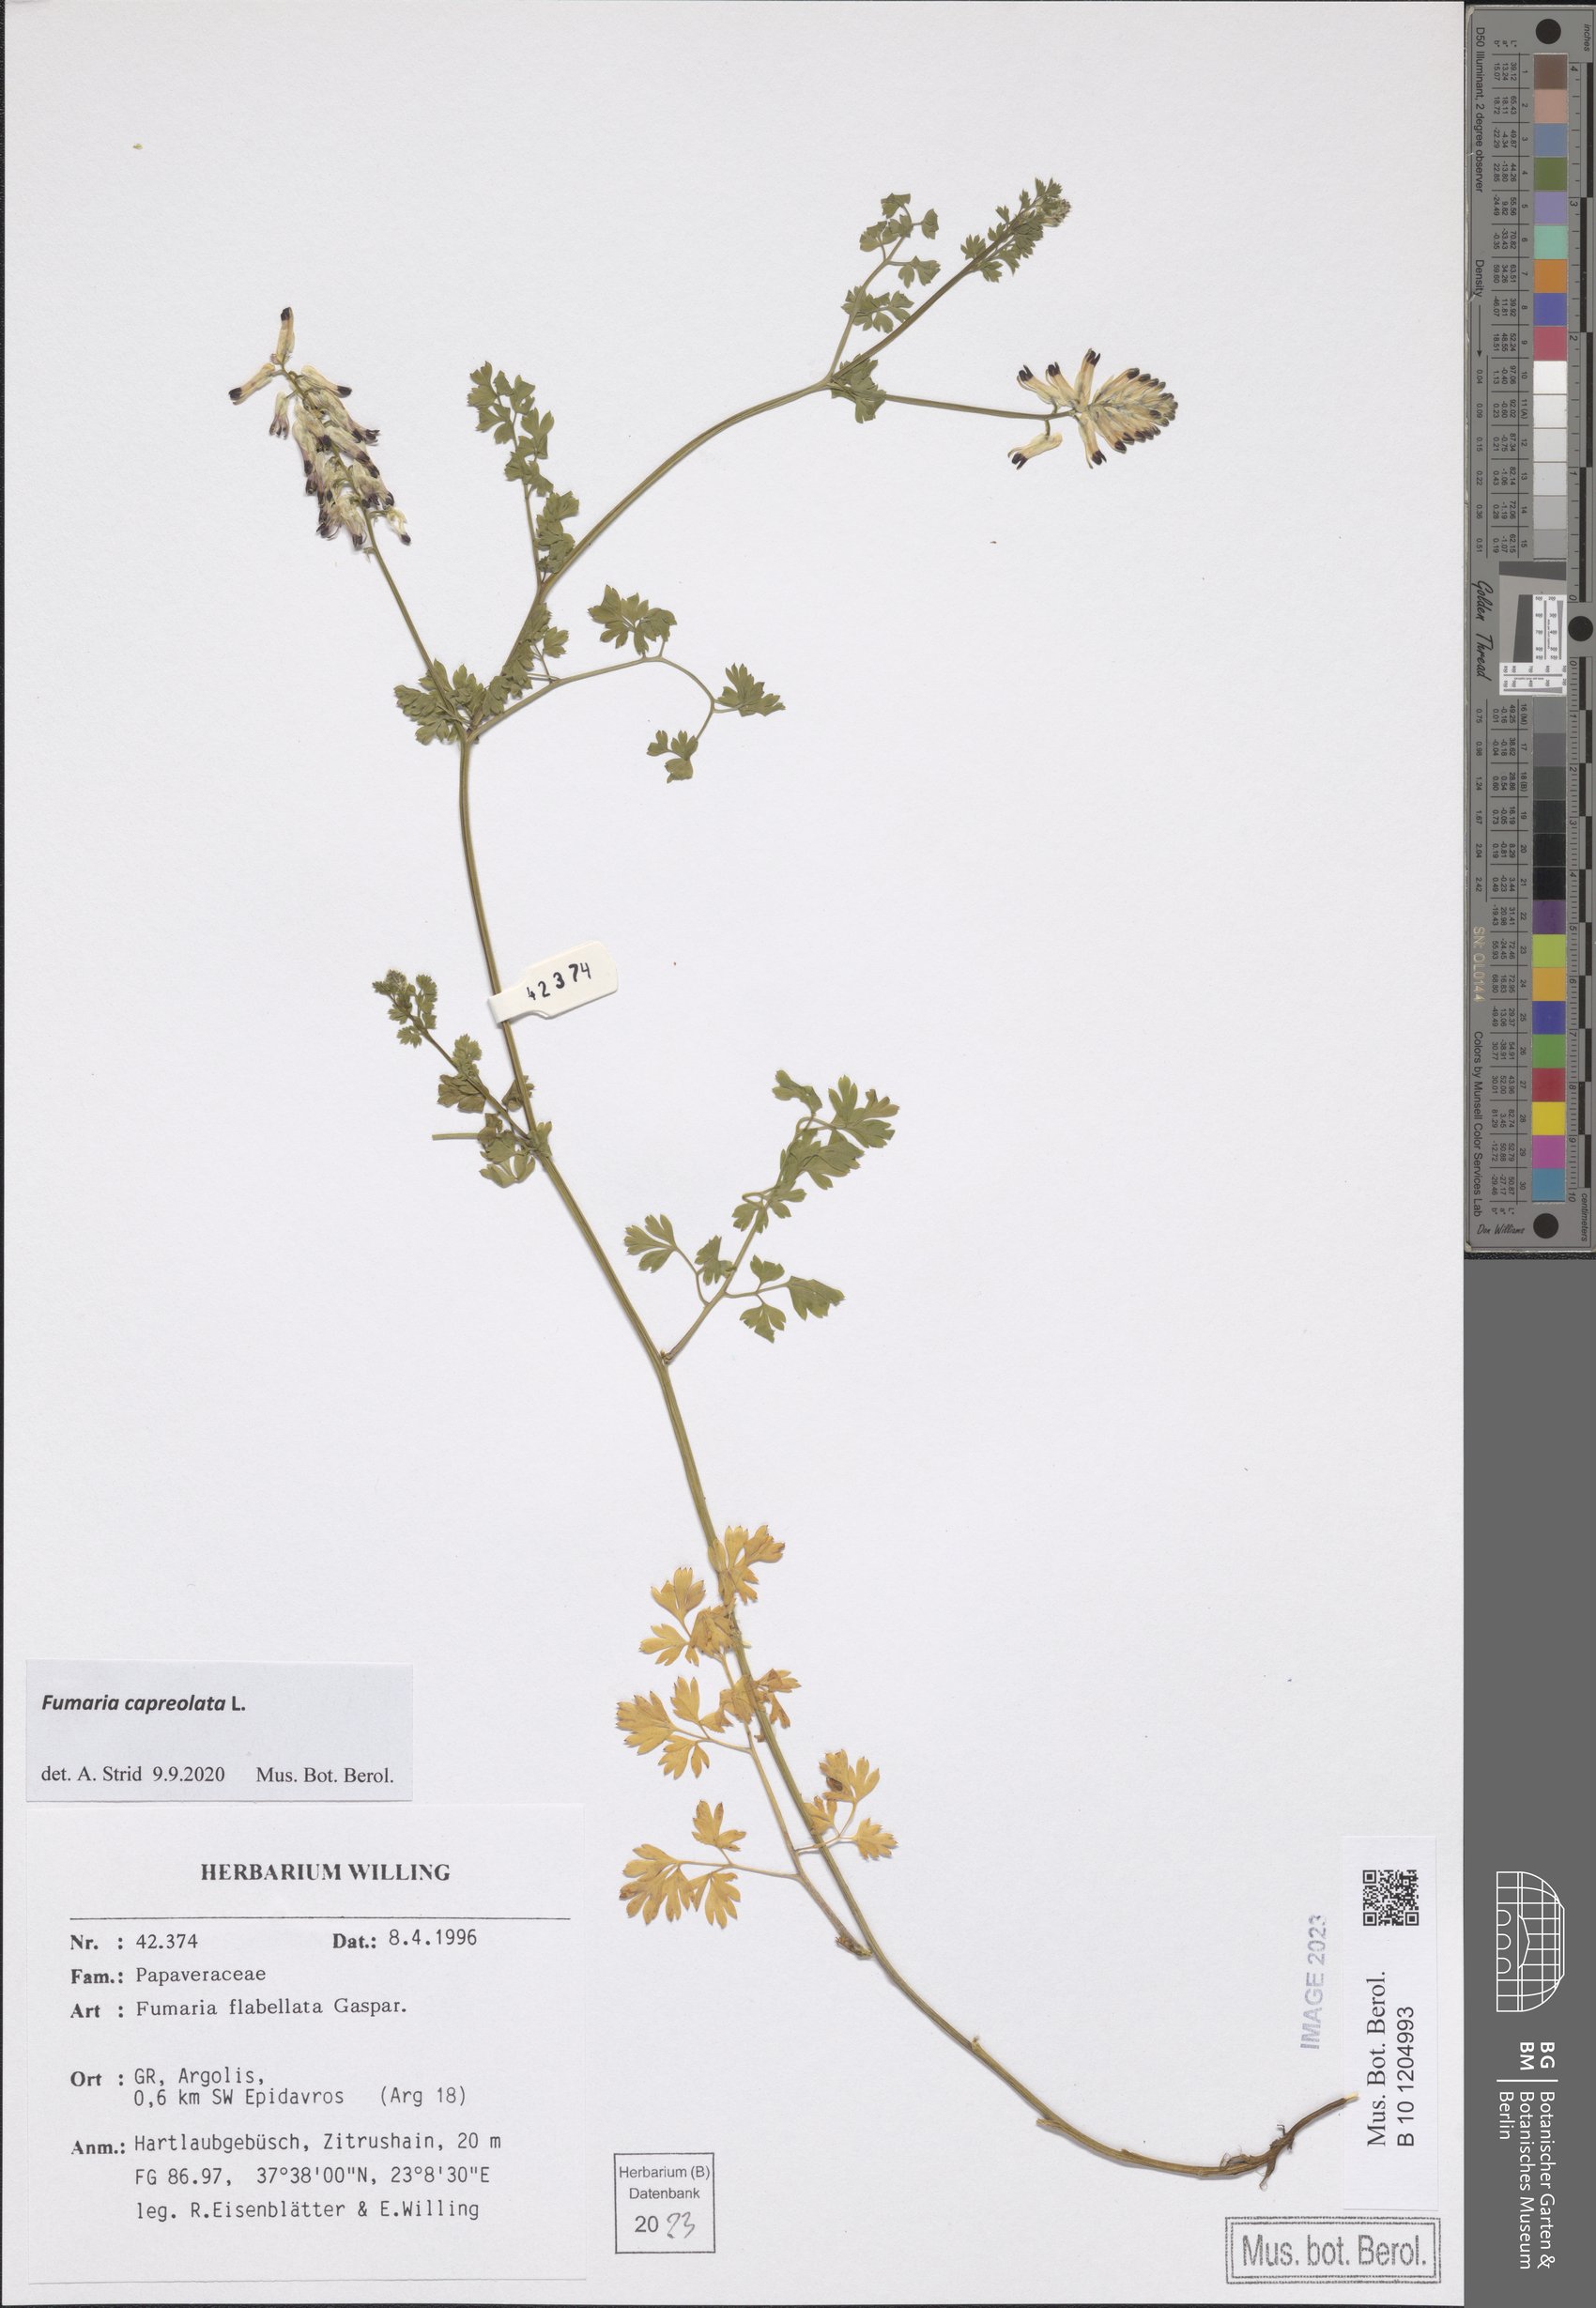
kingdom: Plantae
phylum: Tracheophyta
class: Magnoliopsida
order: Ranunculales
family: Papaveraceae
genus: Fumaria
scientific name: Fumaria capreolata
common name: White ramping-fumitory
